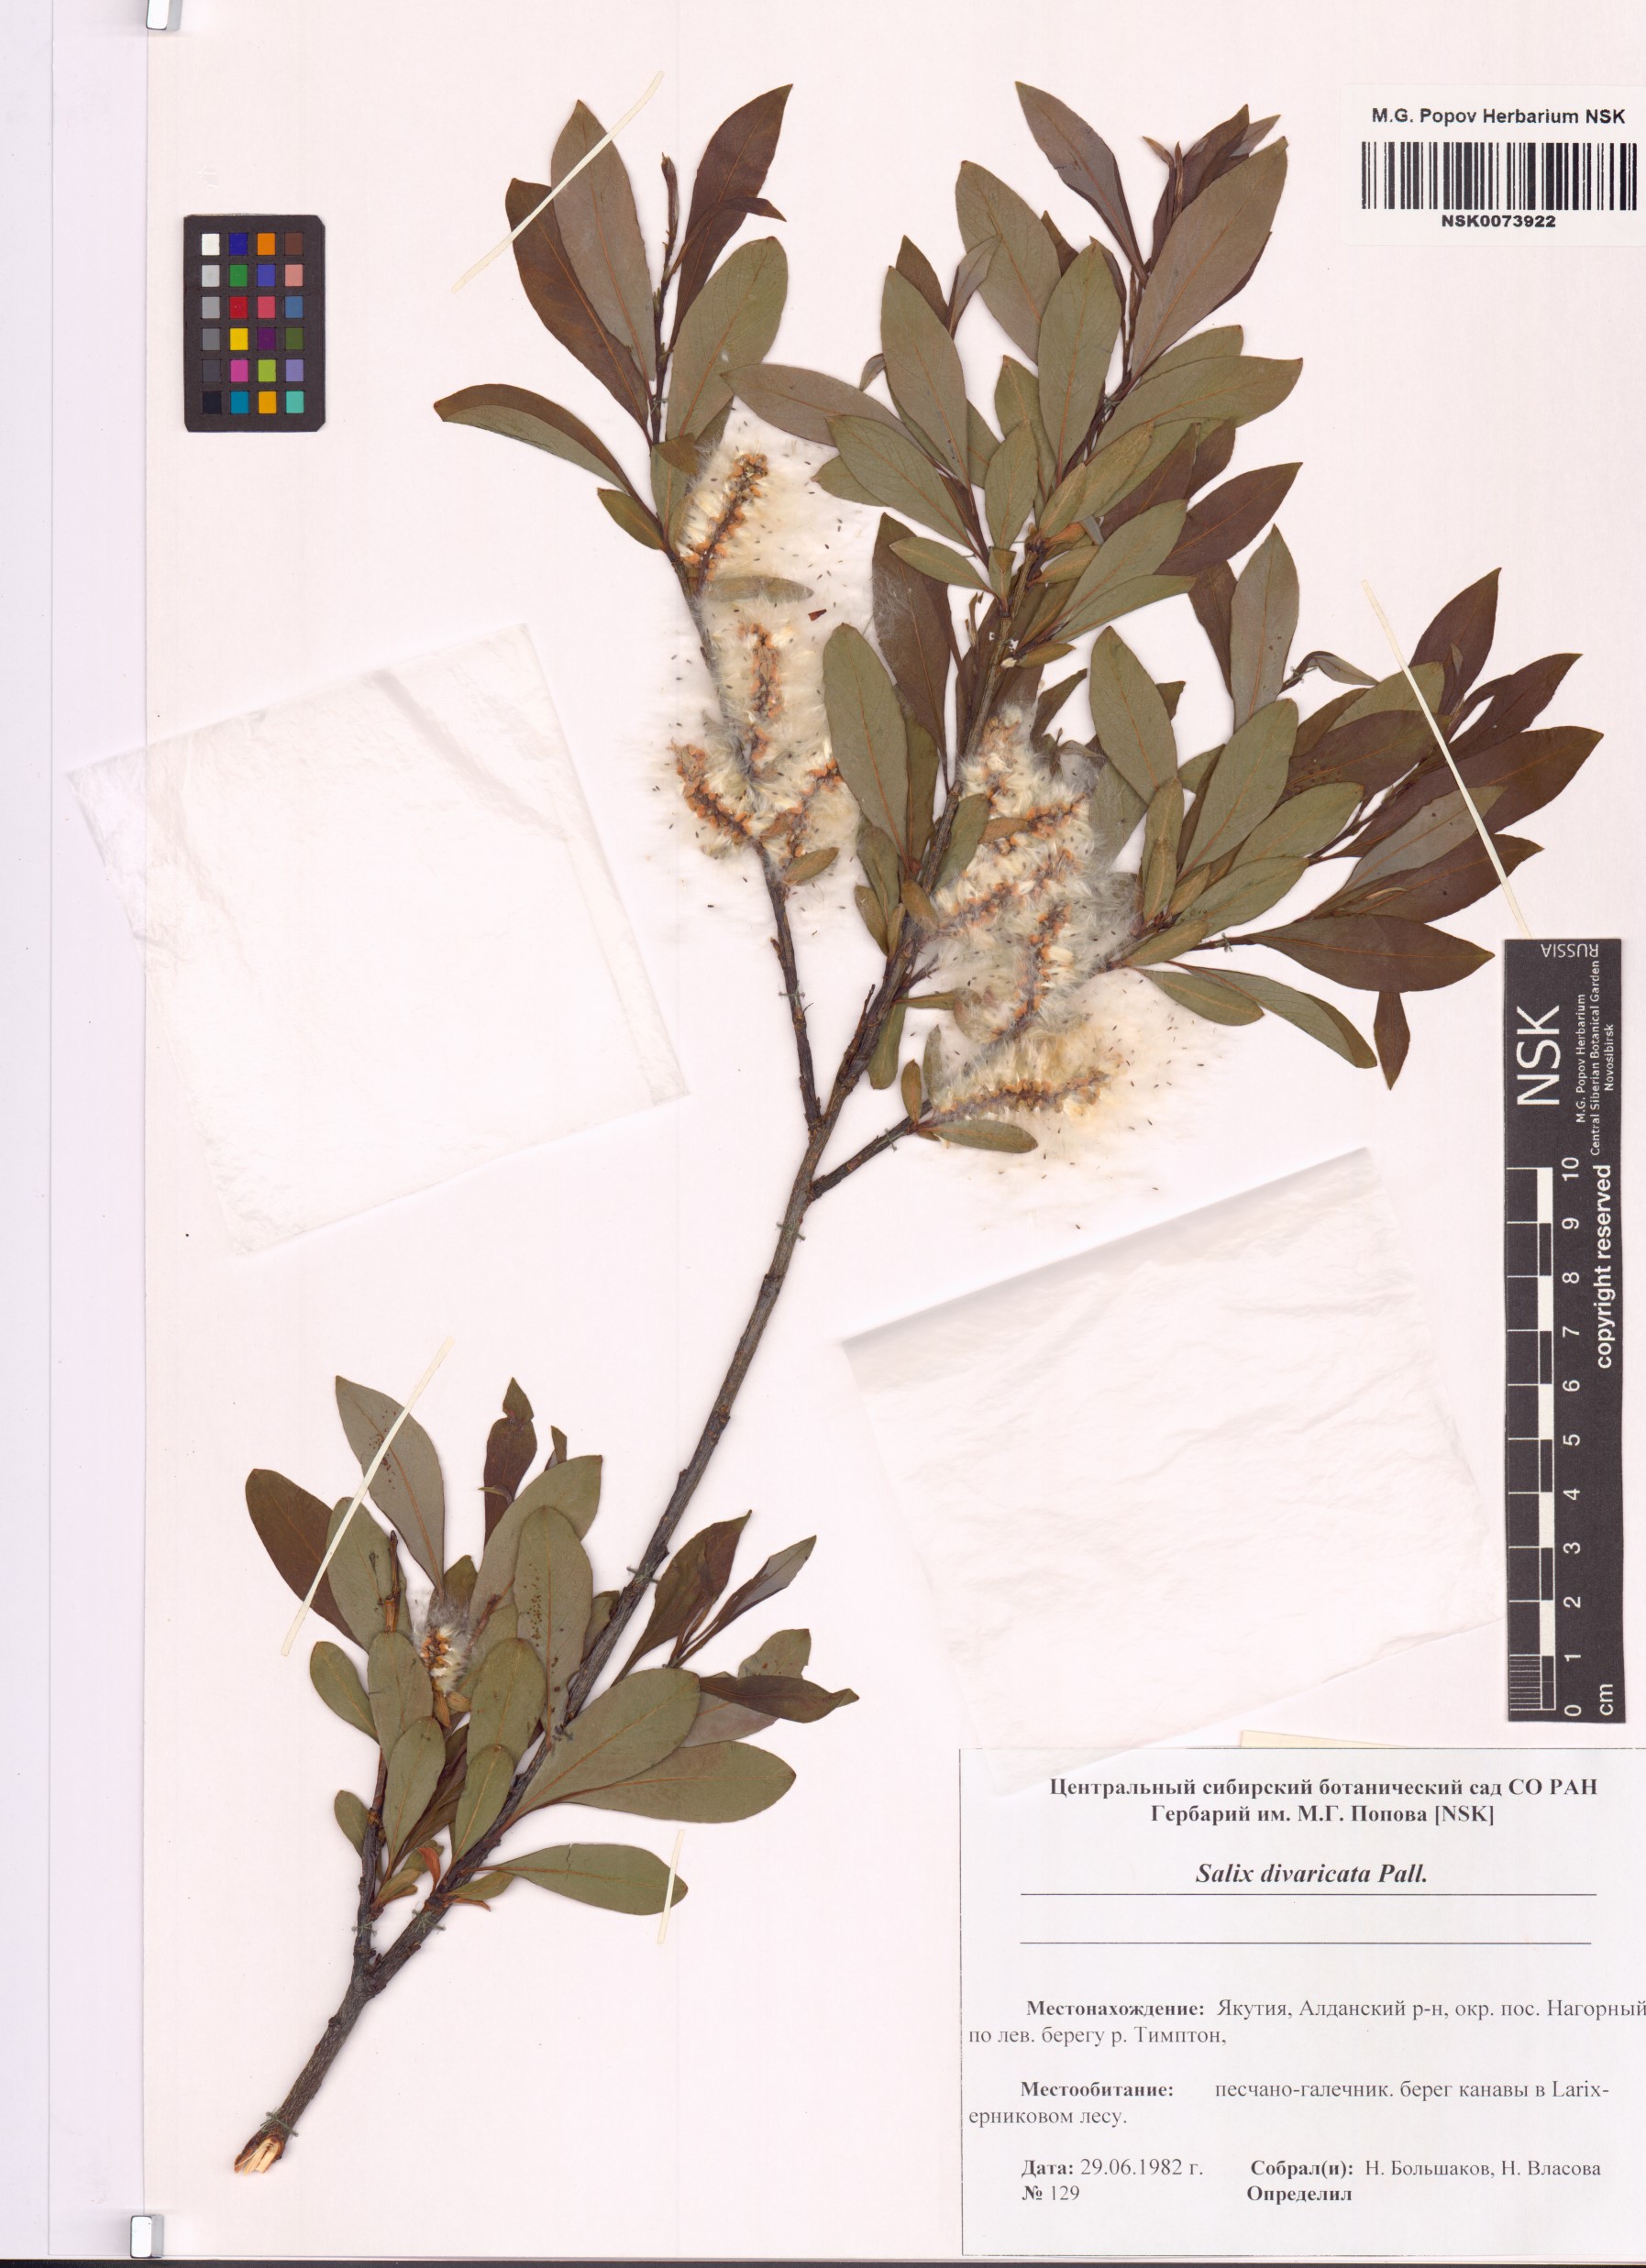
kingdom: Plantae
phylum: Tracheophyta
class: Magnoliopsida
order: Malpighiales
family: Salicaceae
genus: Salix
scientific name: Salix divaricata
